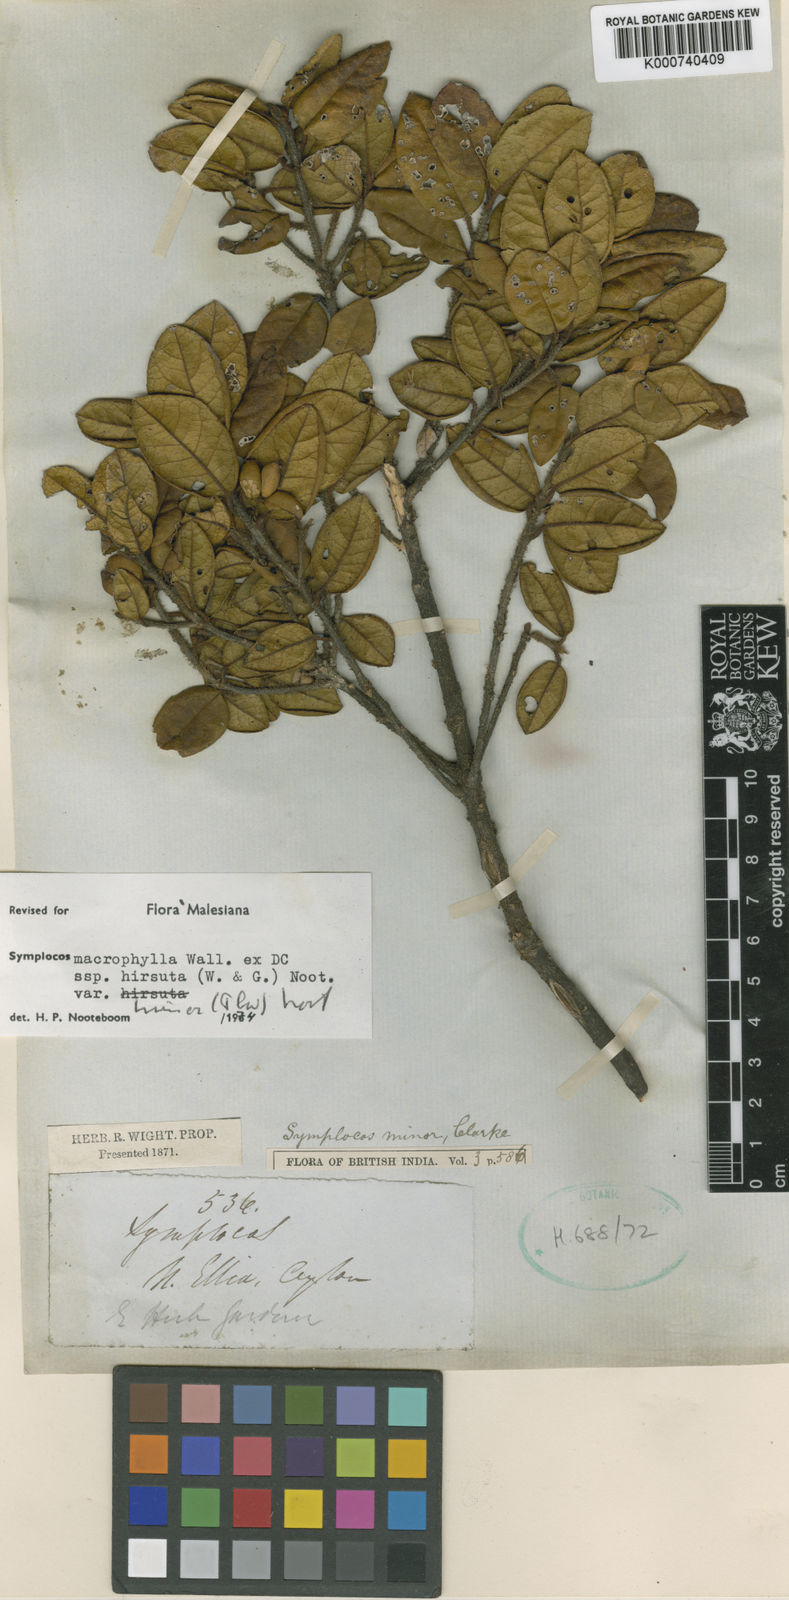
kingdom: Plantae
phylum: Tracheophyta
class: Magnoliopsida
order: Ericales
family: Symplocaceae
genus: Symplocos
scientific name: Symplocos
